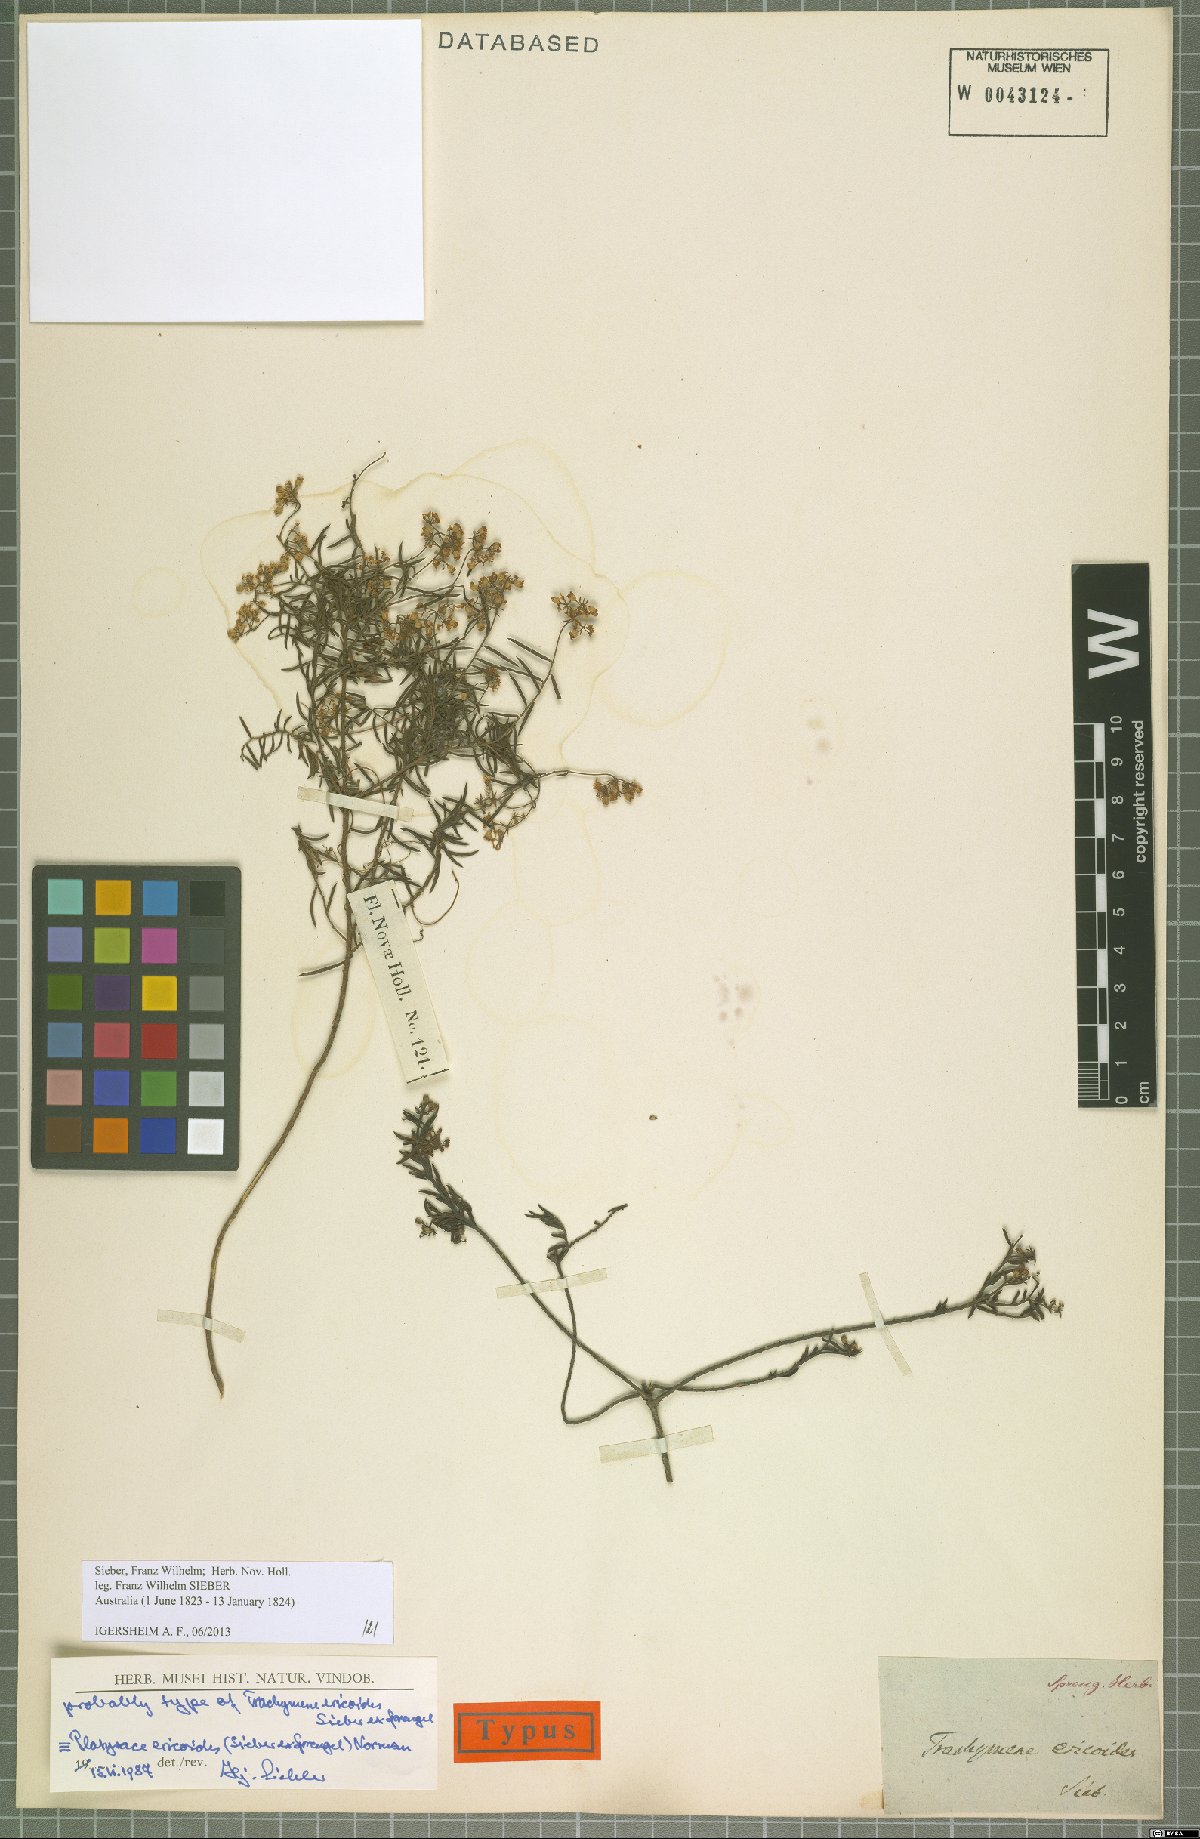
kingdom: Plantae
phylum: Tracheophyta
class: Magnoliopsida
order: Apiales
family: Apiaceae
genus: Platysace
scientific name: Platysace ericoides
